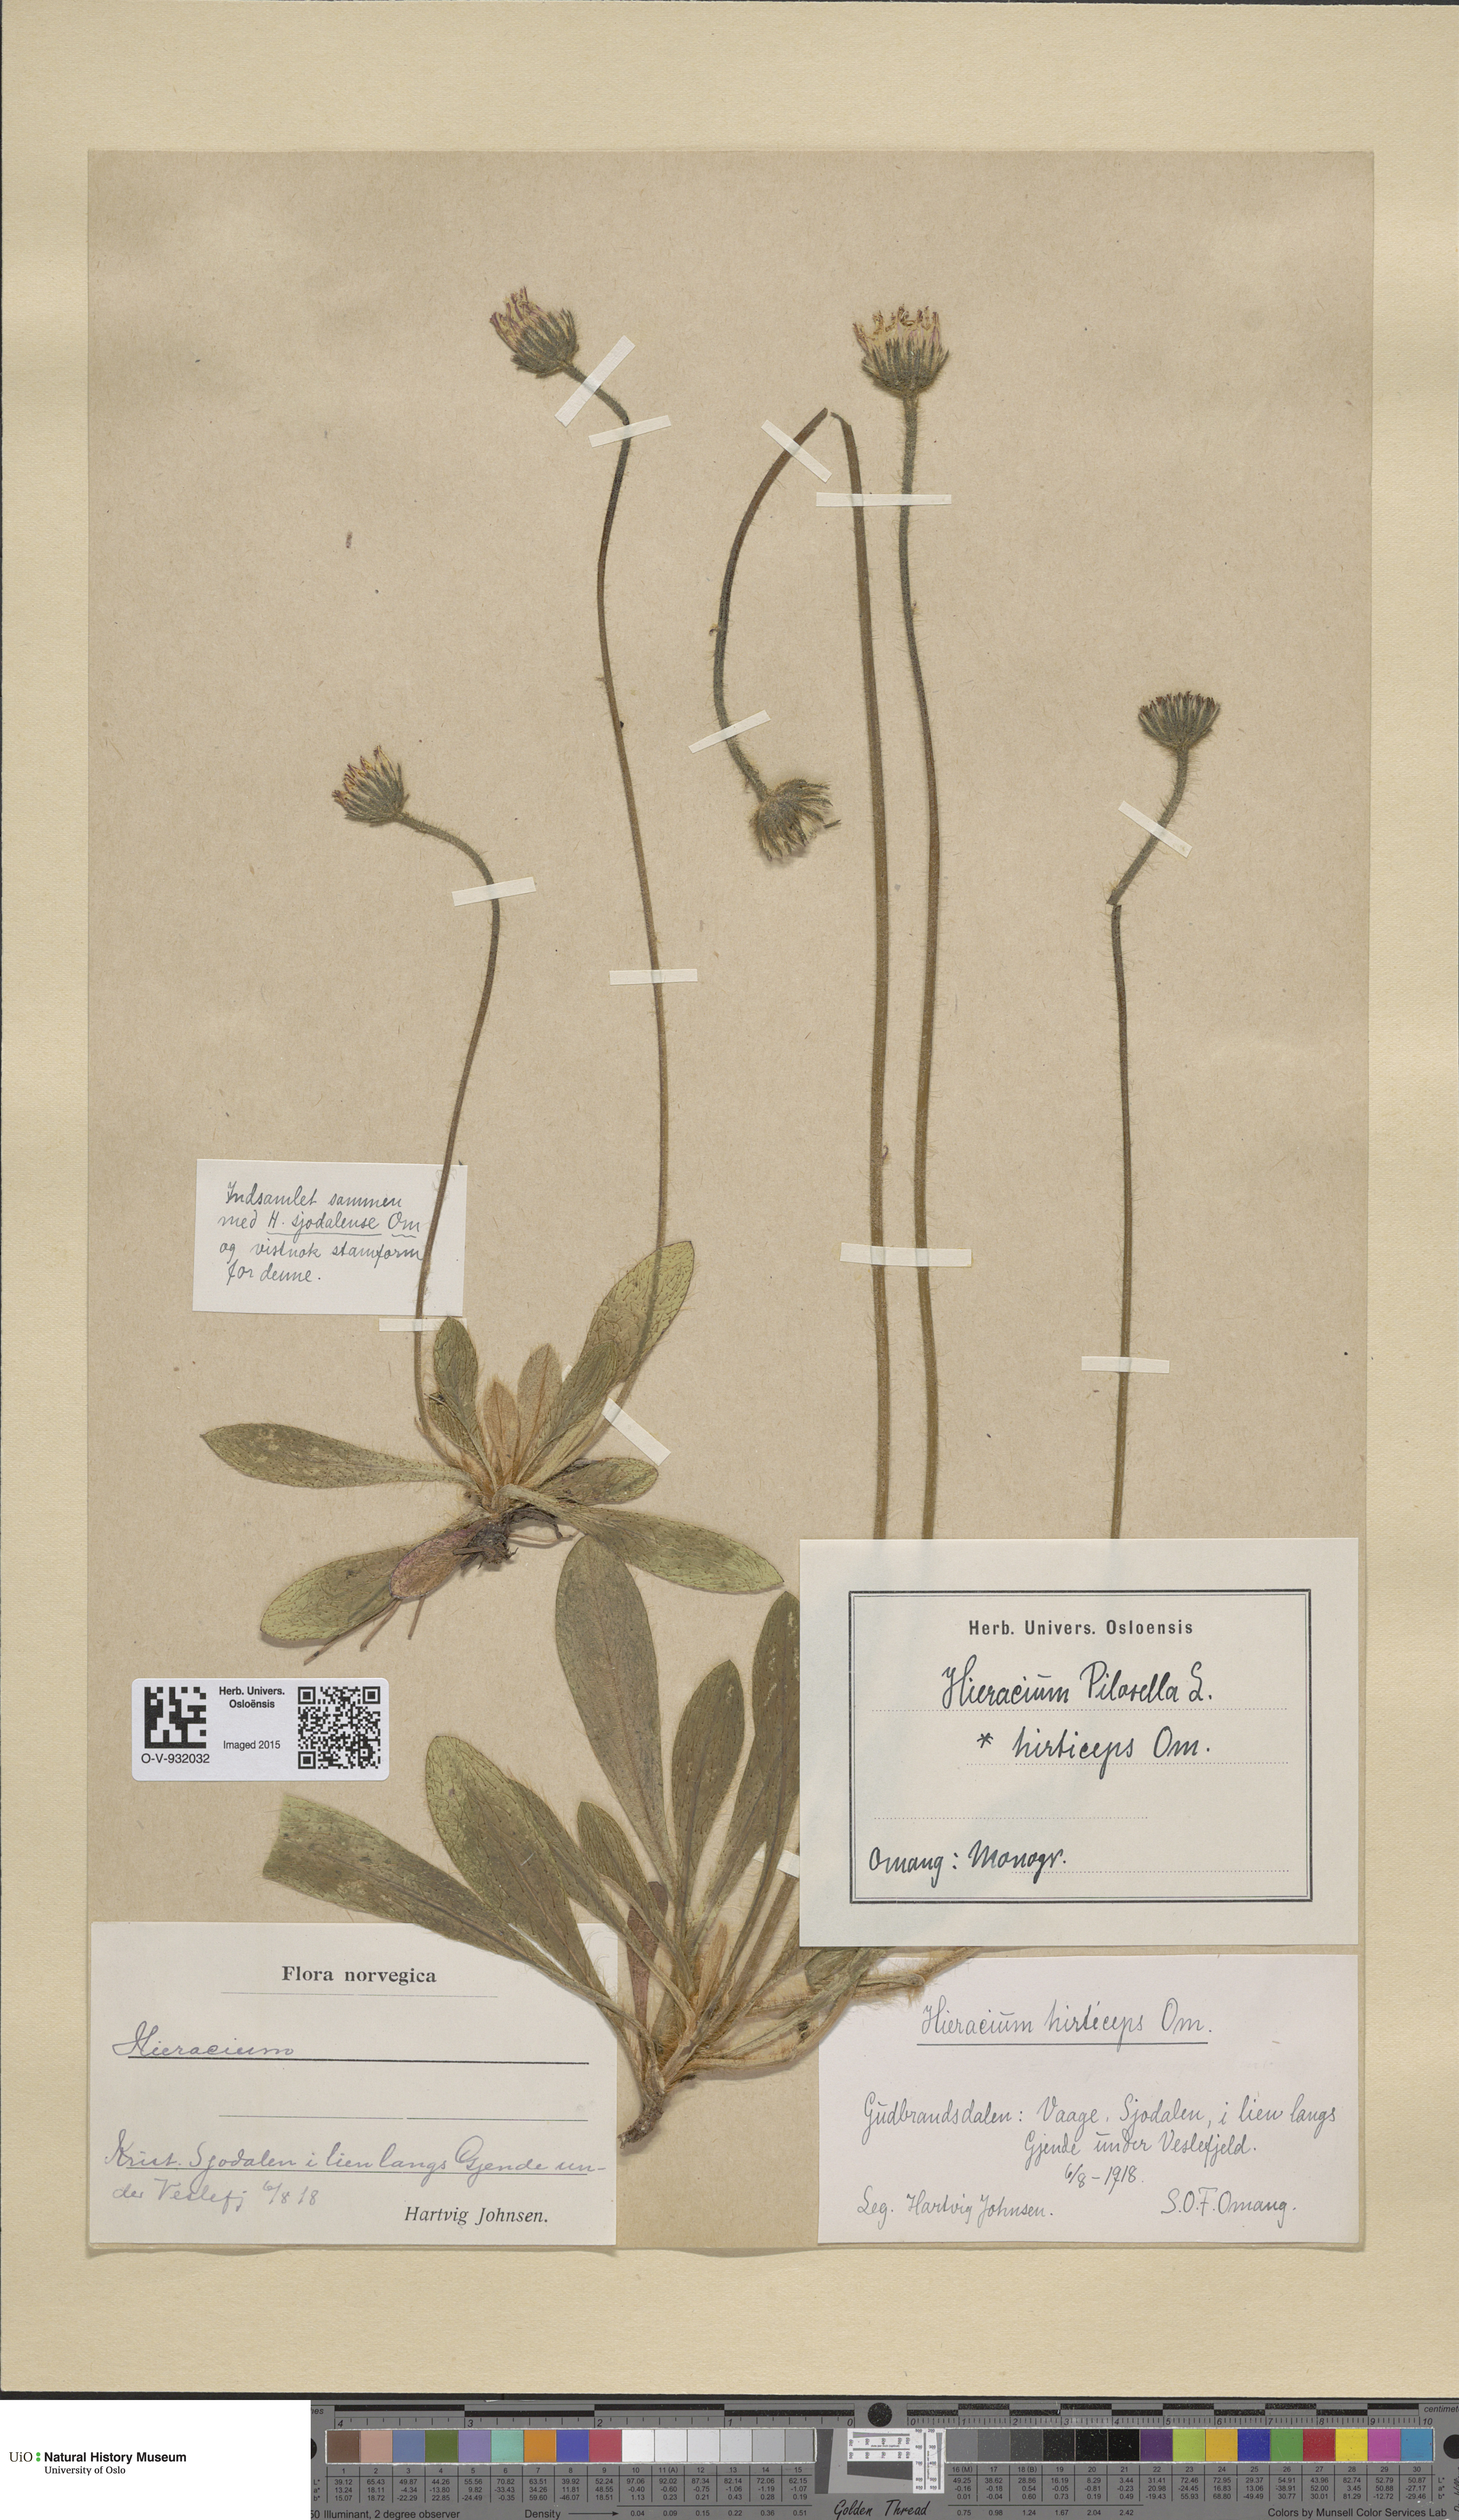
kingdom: Plantae
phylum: Tracheophyta
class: Magnoliopsida
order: Asterales
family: Asteraceae
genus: Pilosella
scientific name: Pilosella officinarum
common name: Mouse-ear hawkweed
